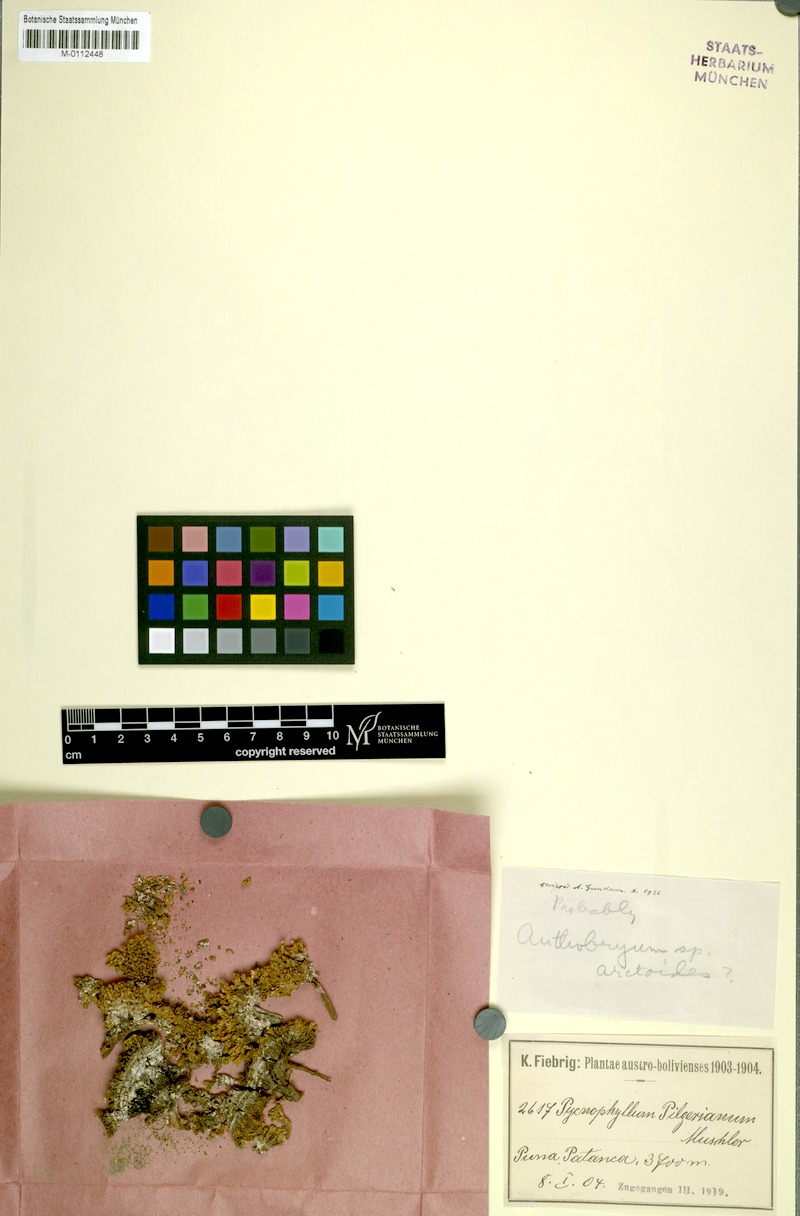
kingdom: Plantae
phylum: Tracheophyta
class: Magnoliopsida
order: Caryophyllales
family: Caryophyllaceae
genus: Pycnophyllum
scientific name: Pycnophyllum pilgerianum
